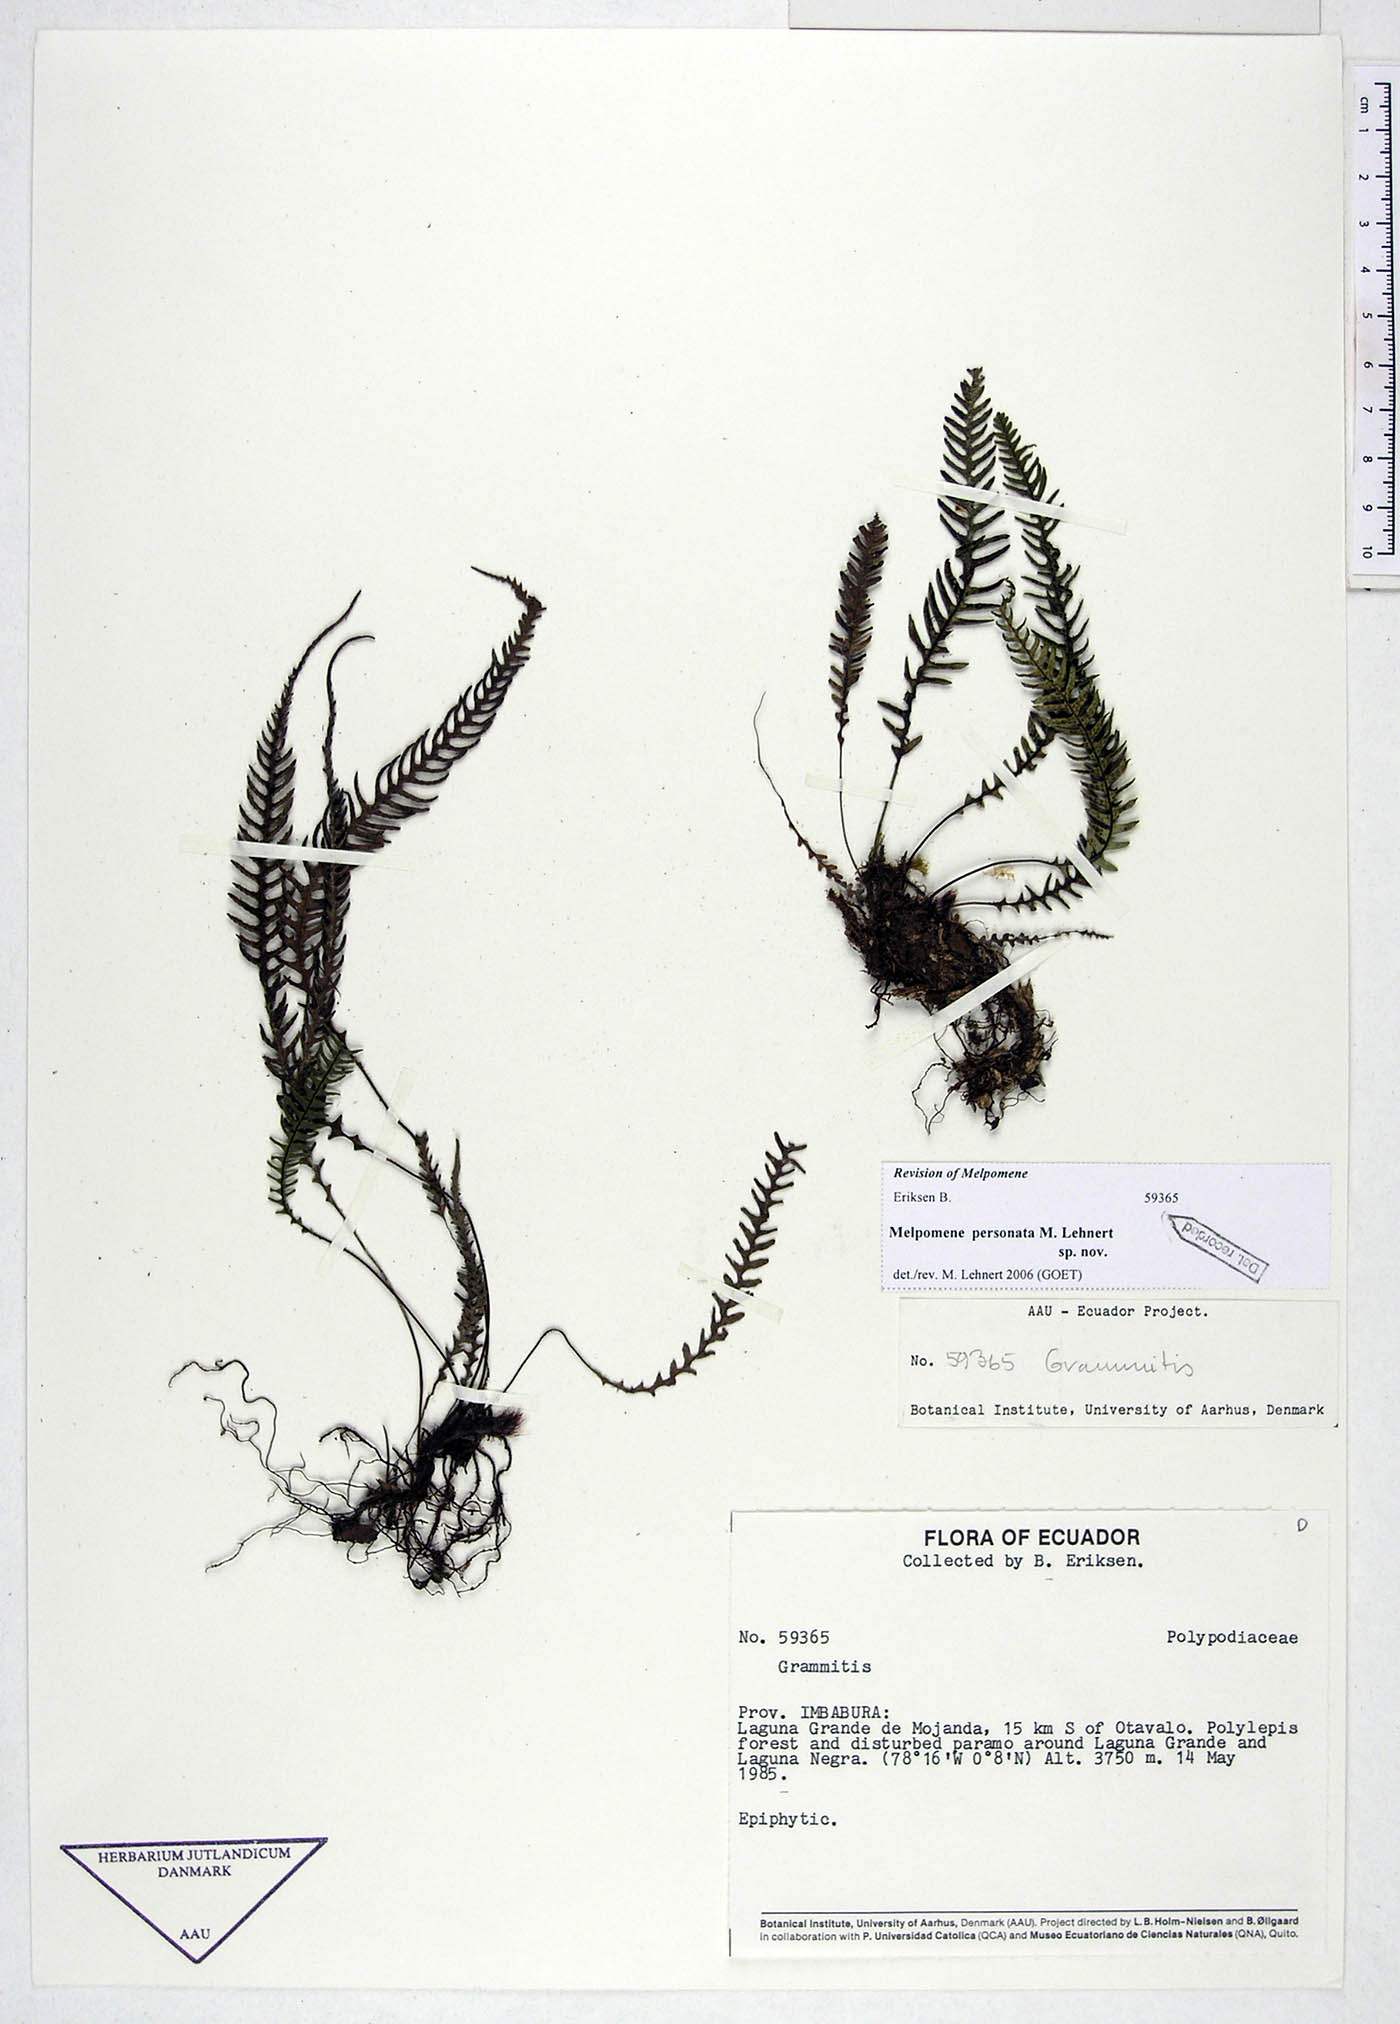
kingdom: Plantae
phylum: Tracheophyta
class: Polypodiopsida
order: Polypodiales
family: Polypodiaceae
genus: Melpomene
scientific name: Melpomene personata
